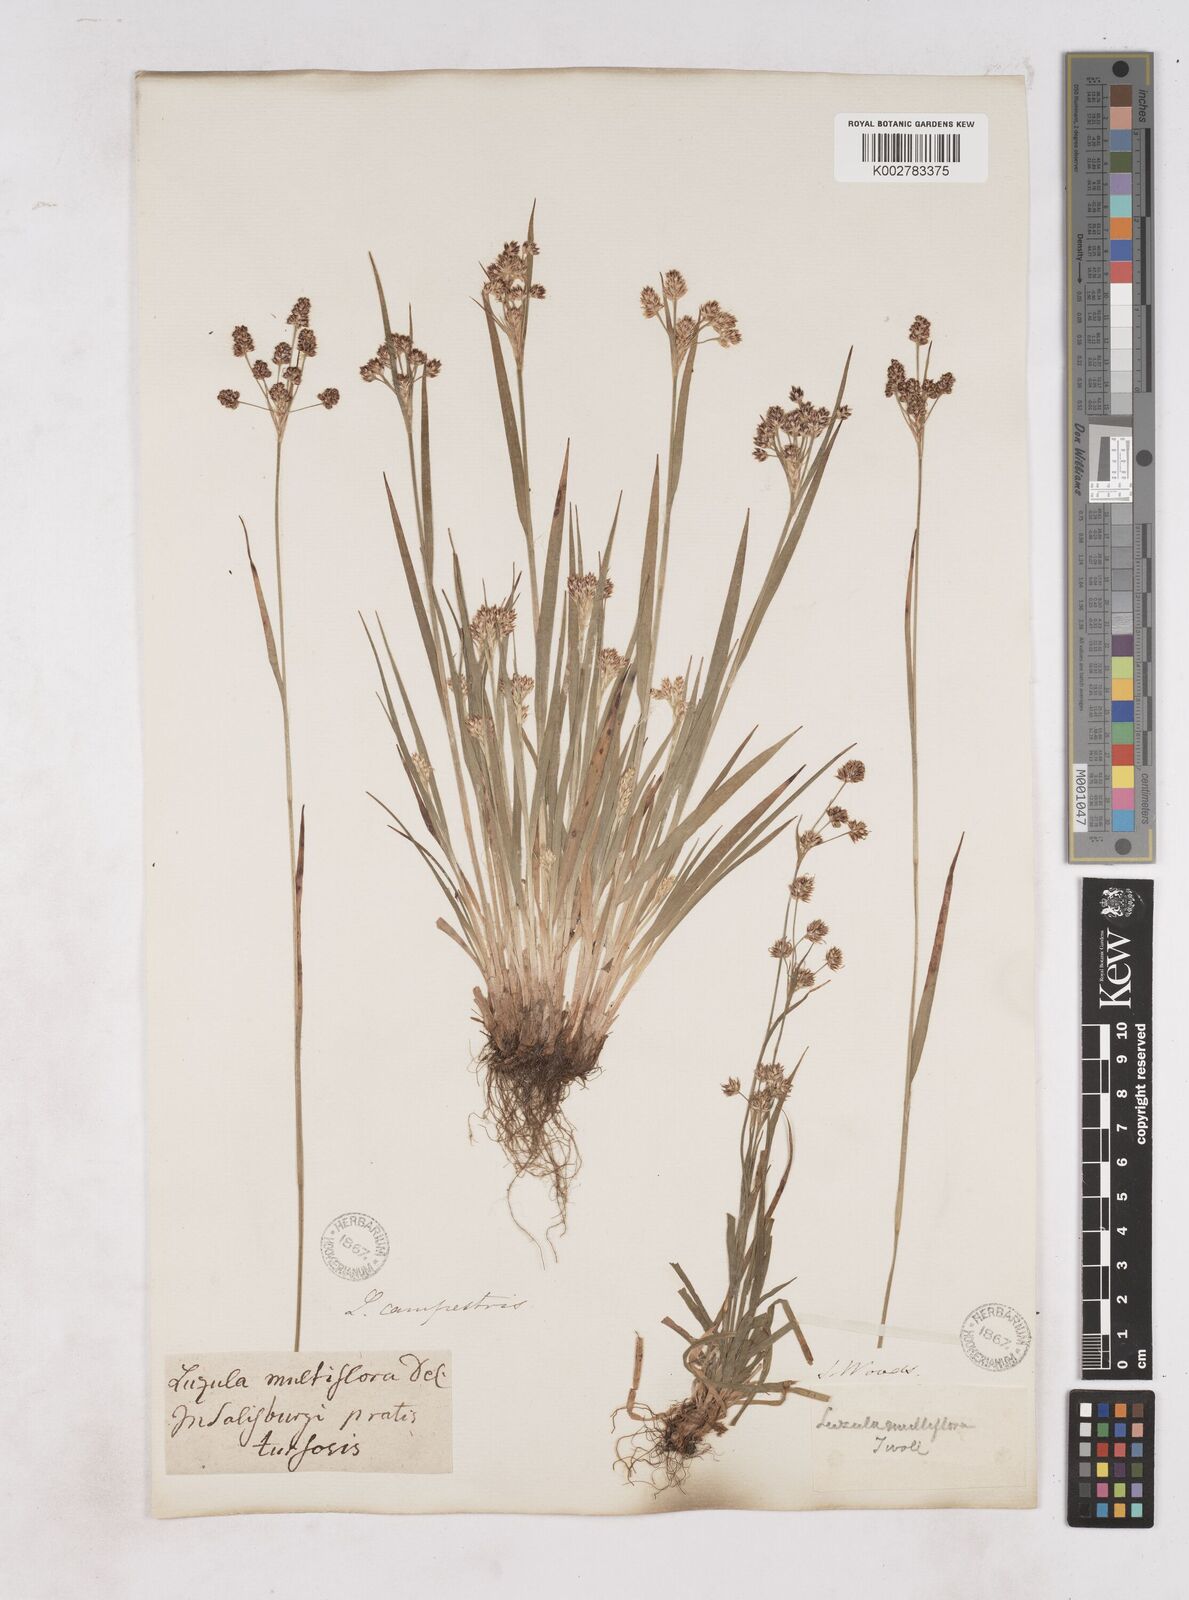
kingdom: Plantae
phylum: Tracheophyta
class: Liliopsida
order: Poales
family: Juncaceae
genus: Luzula
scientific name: Luzula multiflora
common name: Heath wood-rush
